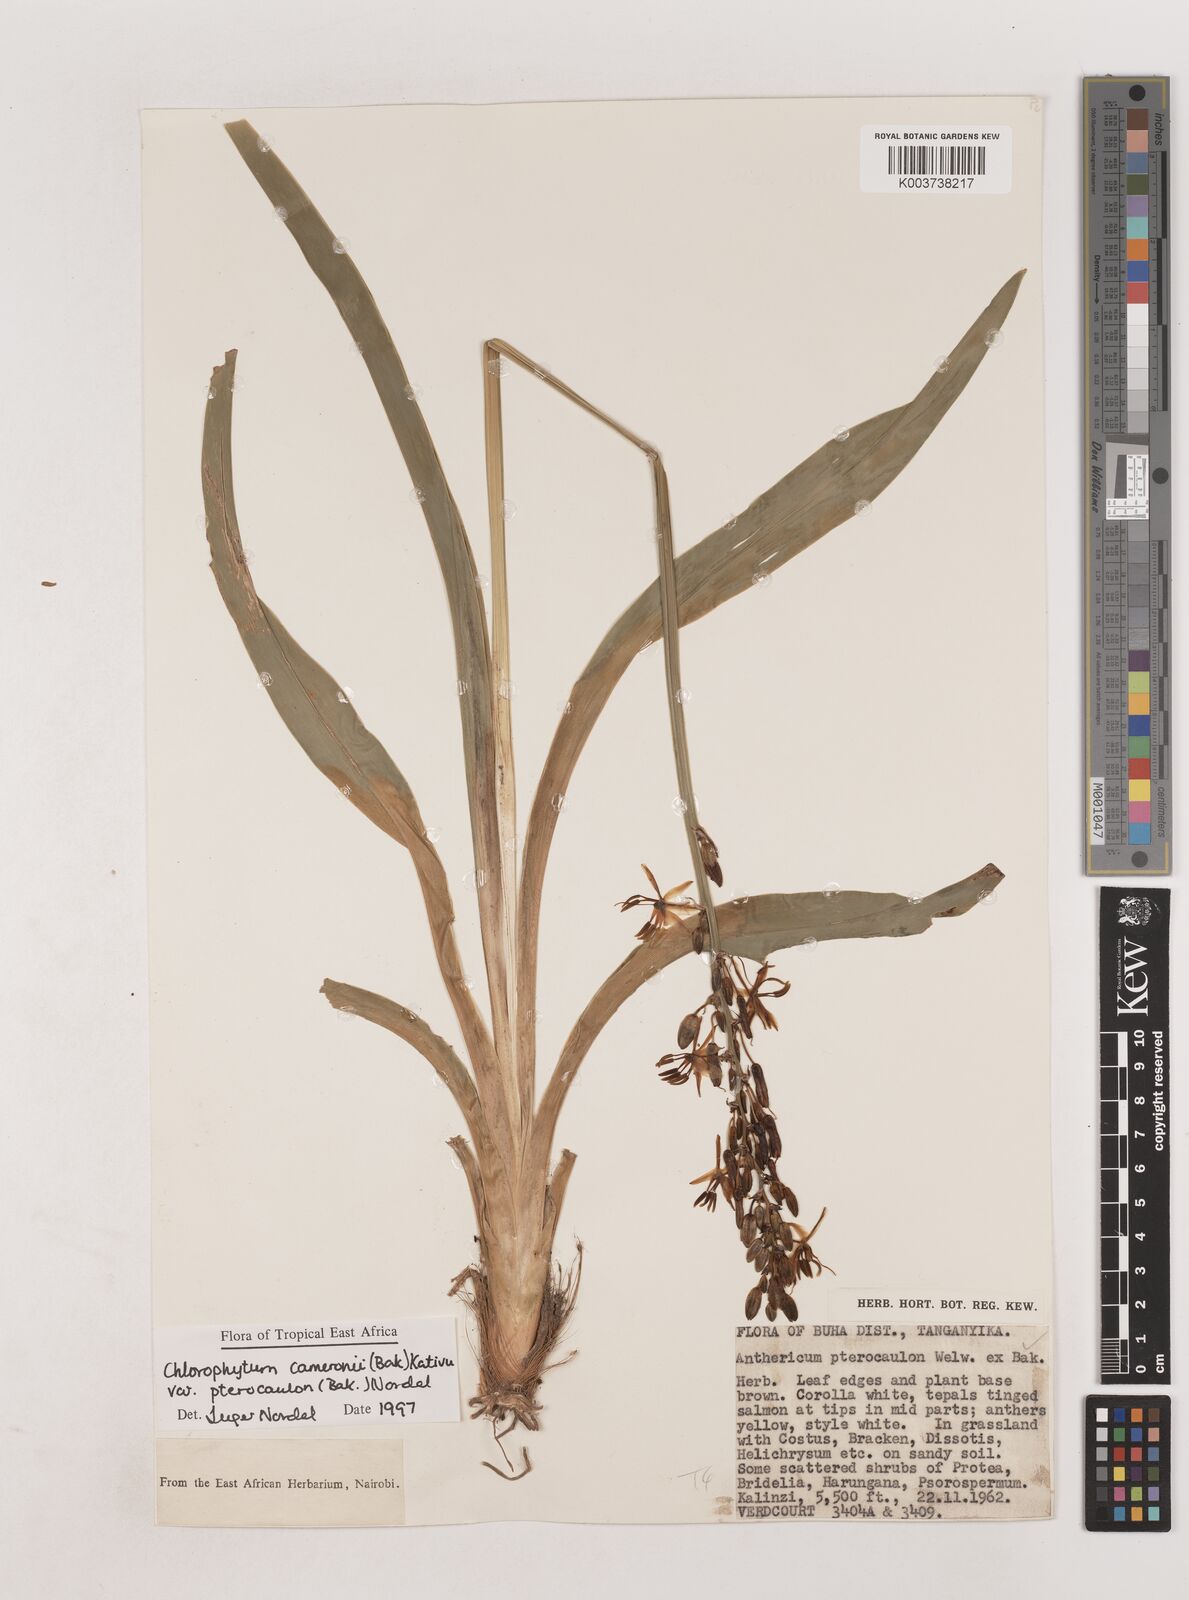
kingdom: Plantae
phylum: Tracheophyta
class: Liliopsida
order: Asparagales
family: Asparagaceae
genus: Chlorophytum
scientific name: Chlorophytum cameronii
